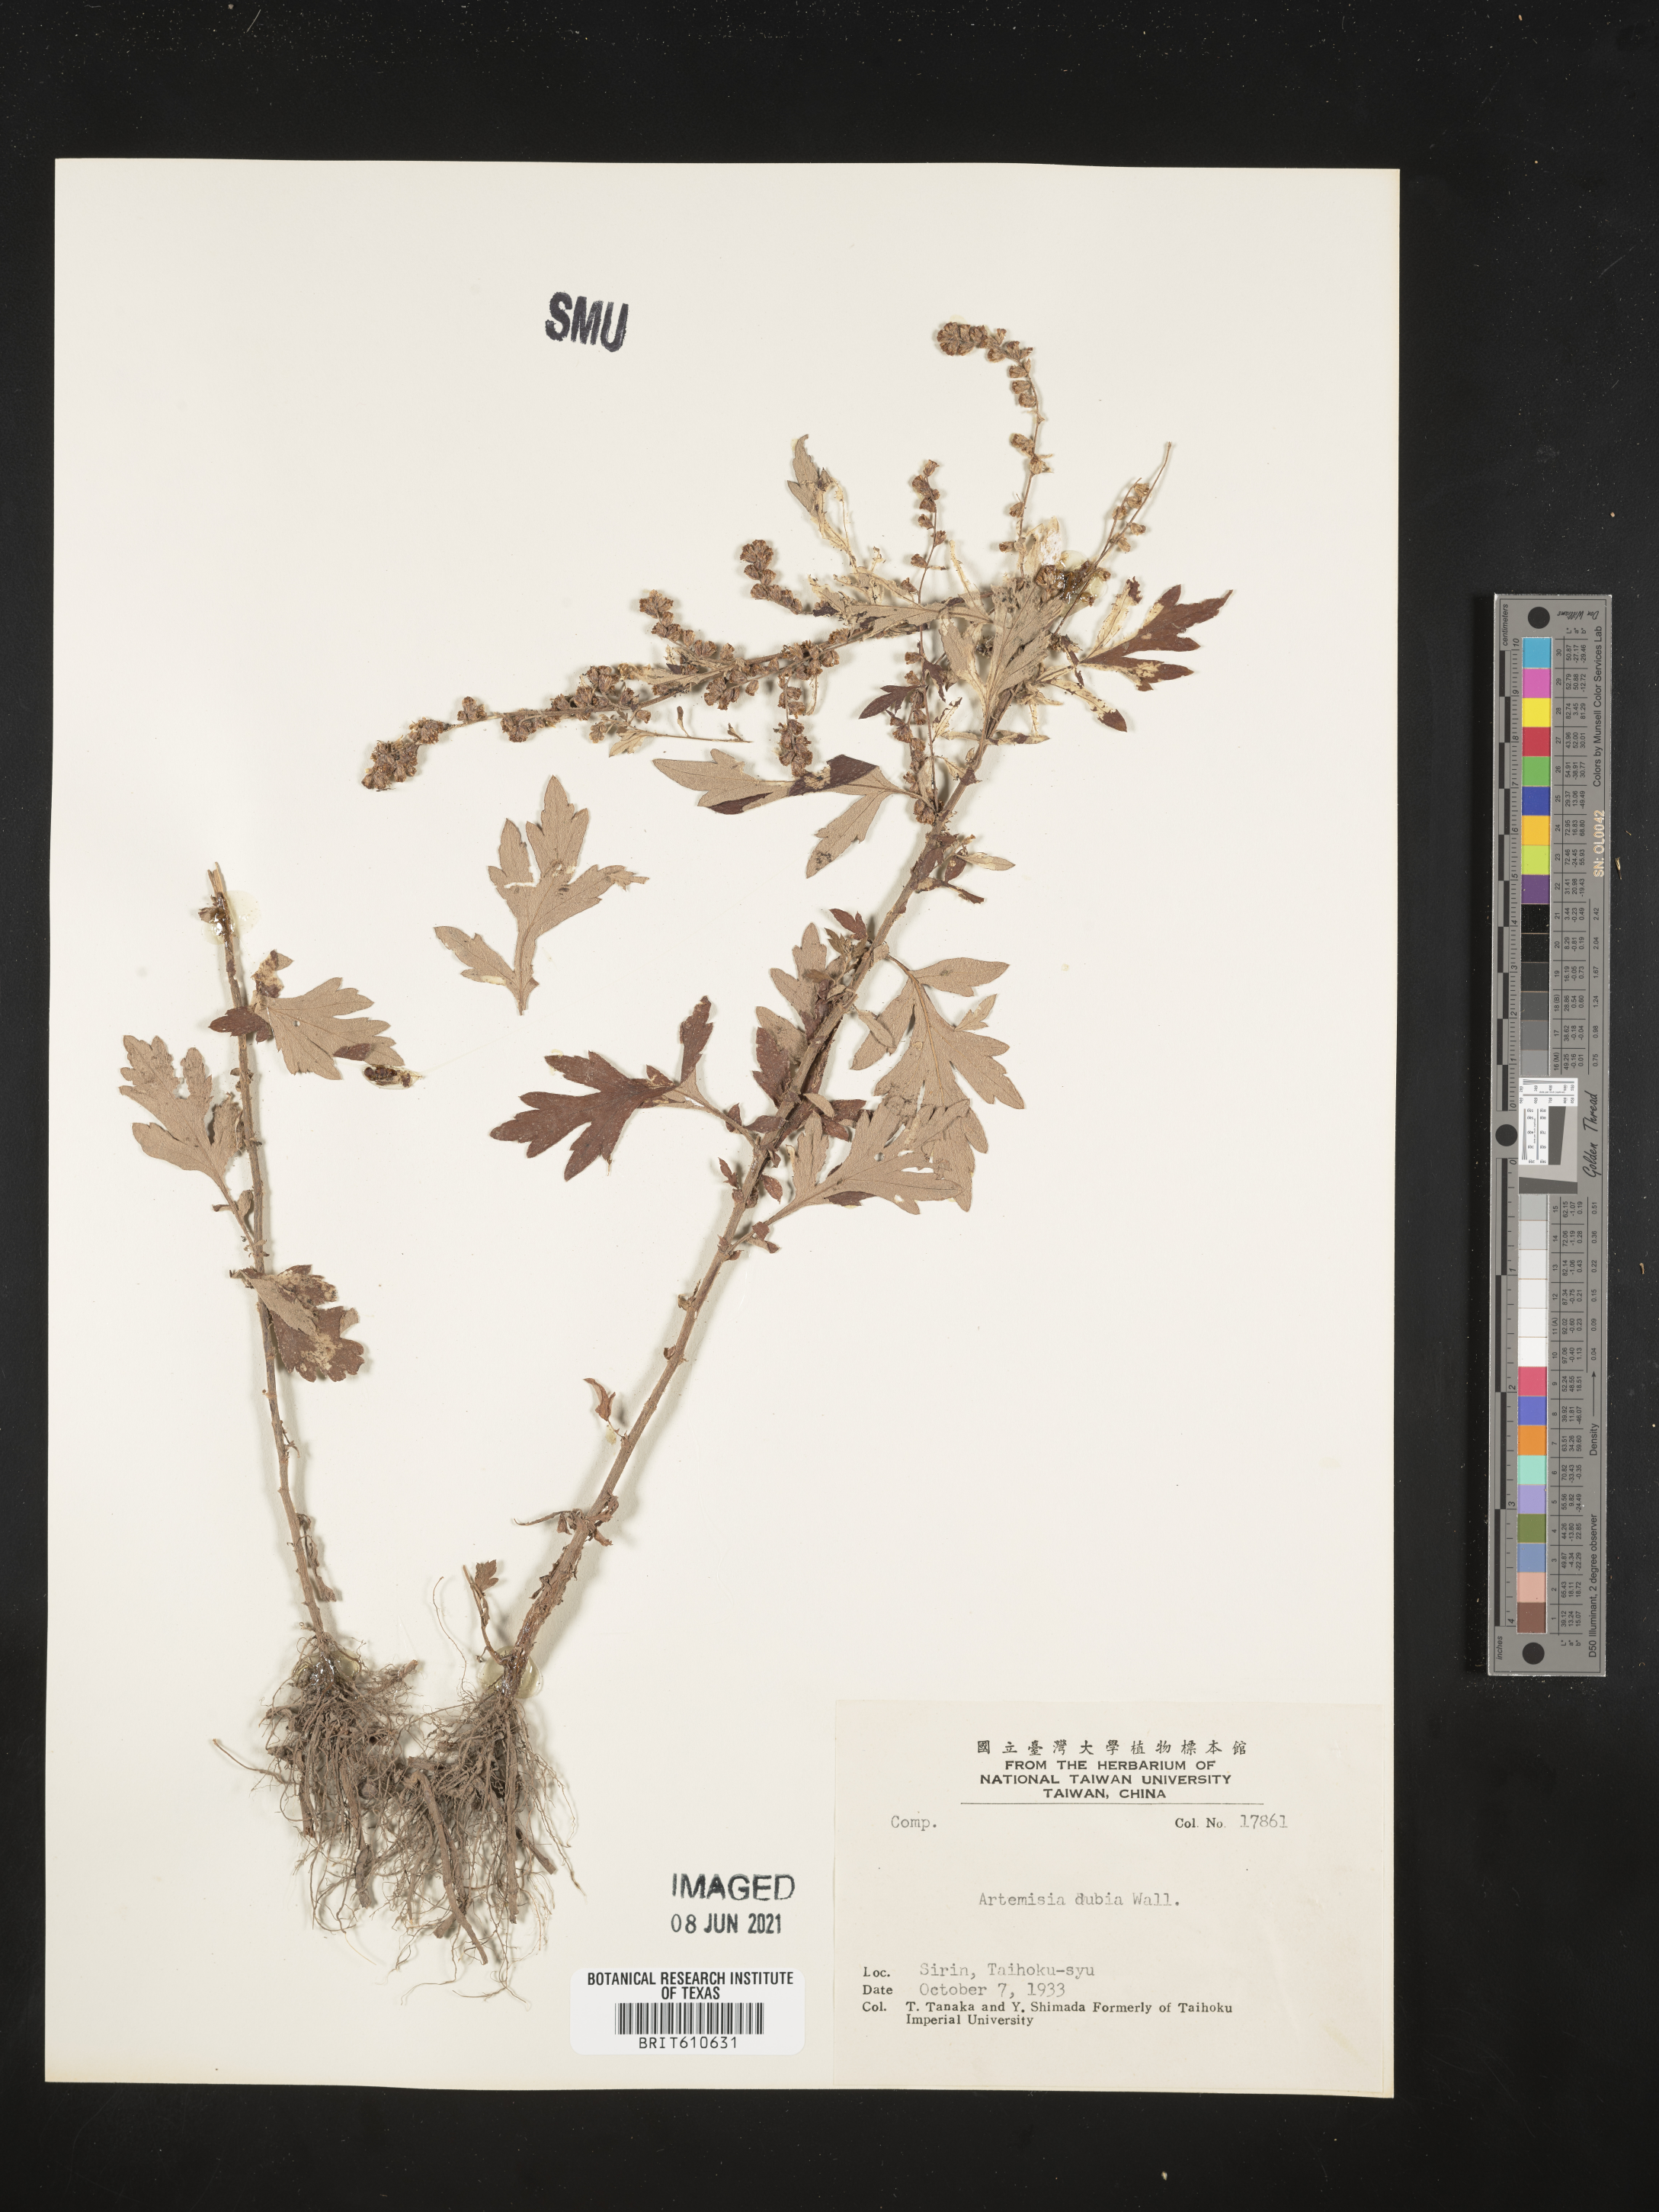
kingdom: Plantae
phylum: Tracheophyta
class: Magnoliopsida
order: Asterales
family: Asteraceae
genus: Artemisia
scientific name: Artemisia dubia
